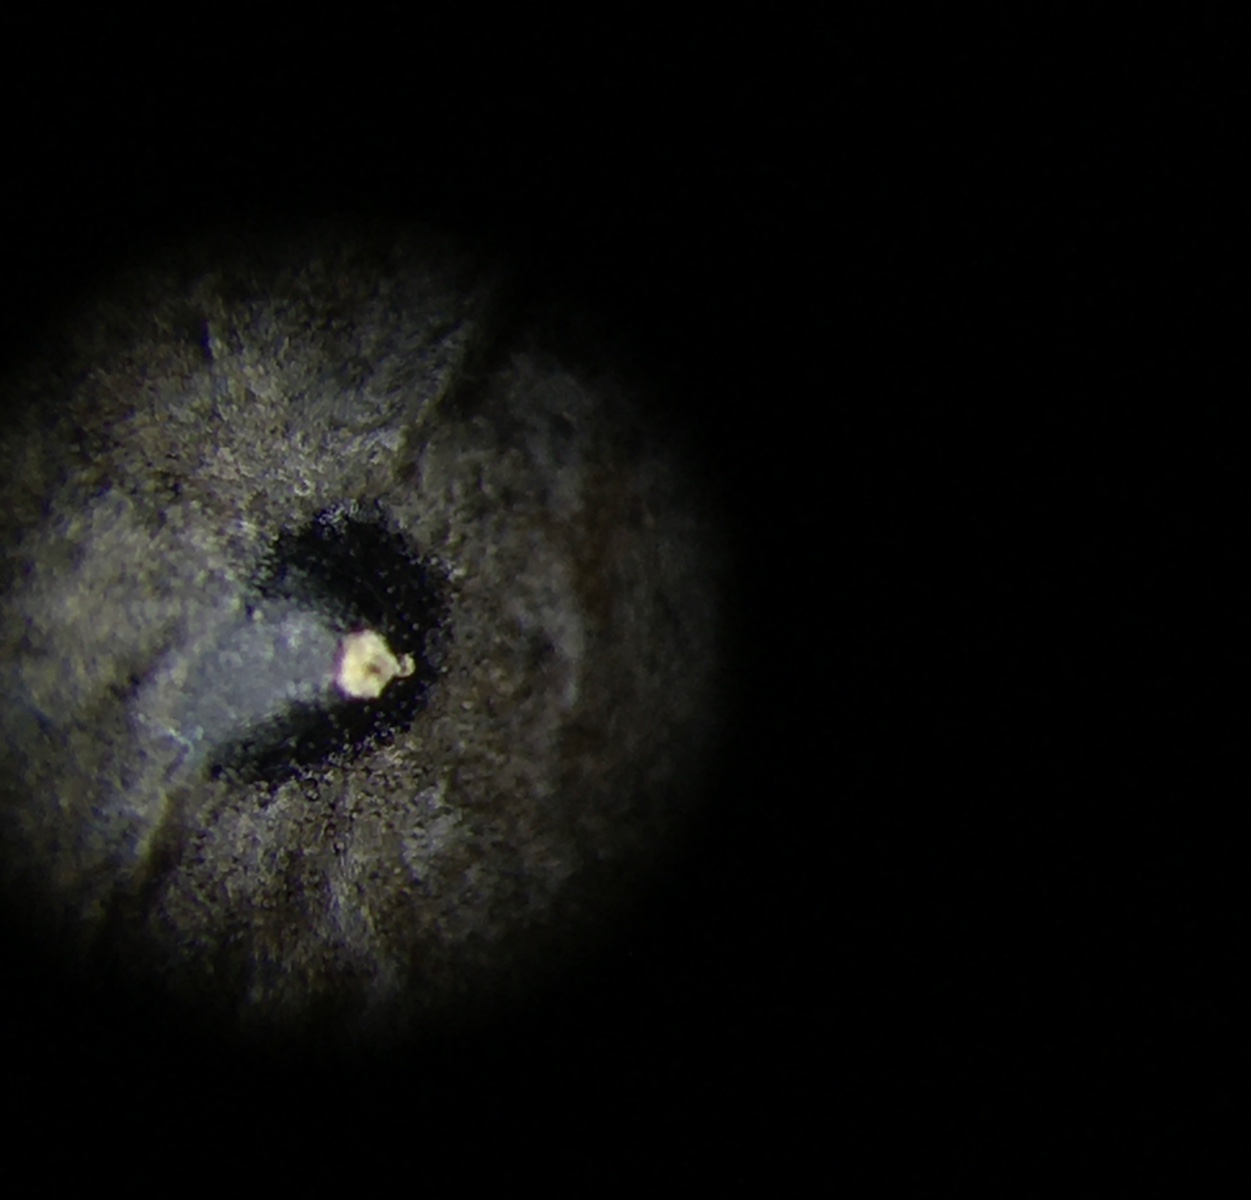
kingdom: Fungi
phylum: Ascomycota
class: Leotiomycetes
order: Phacidiales
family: Phacidiaceae
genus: Phacidium
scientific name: Phacidium lauri
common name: kristtorn-tandskive
